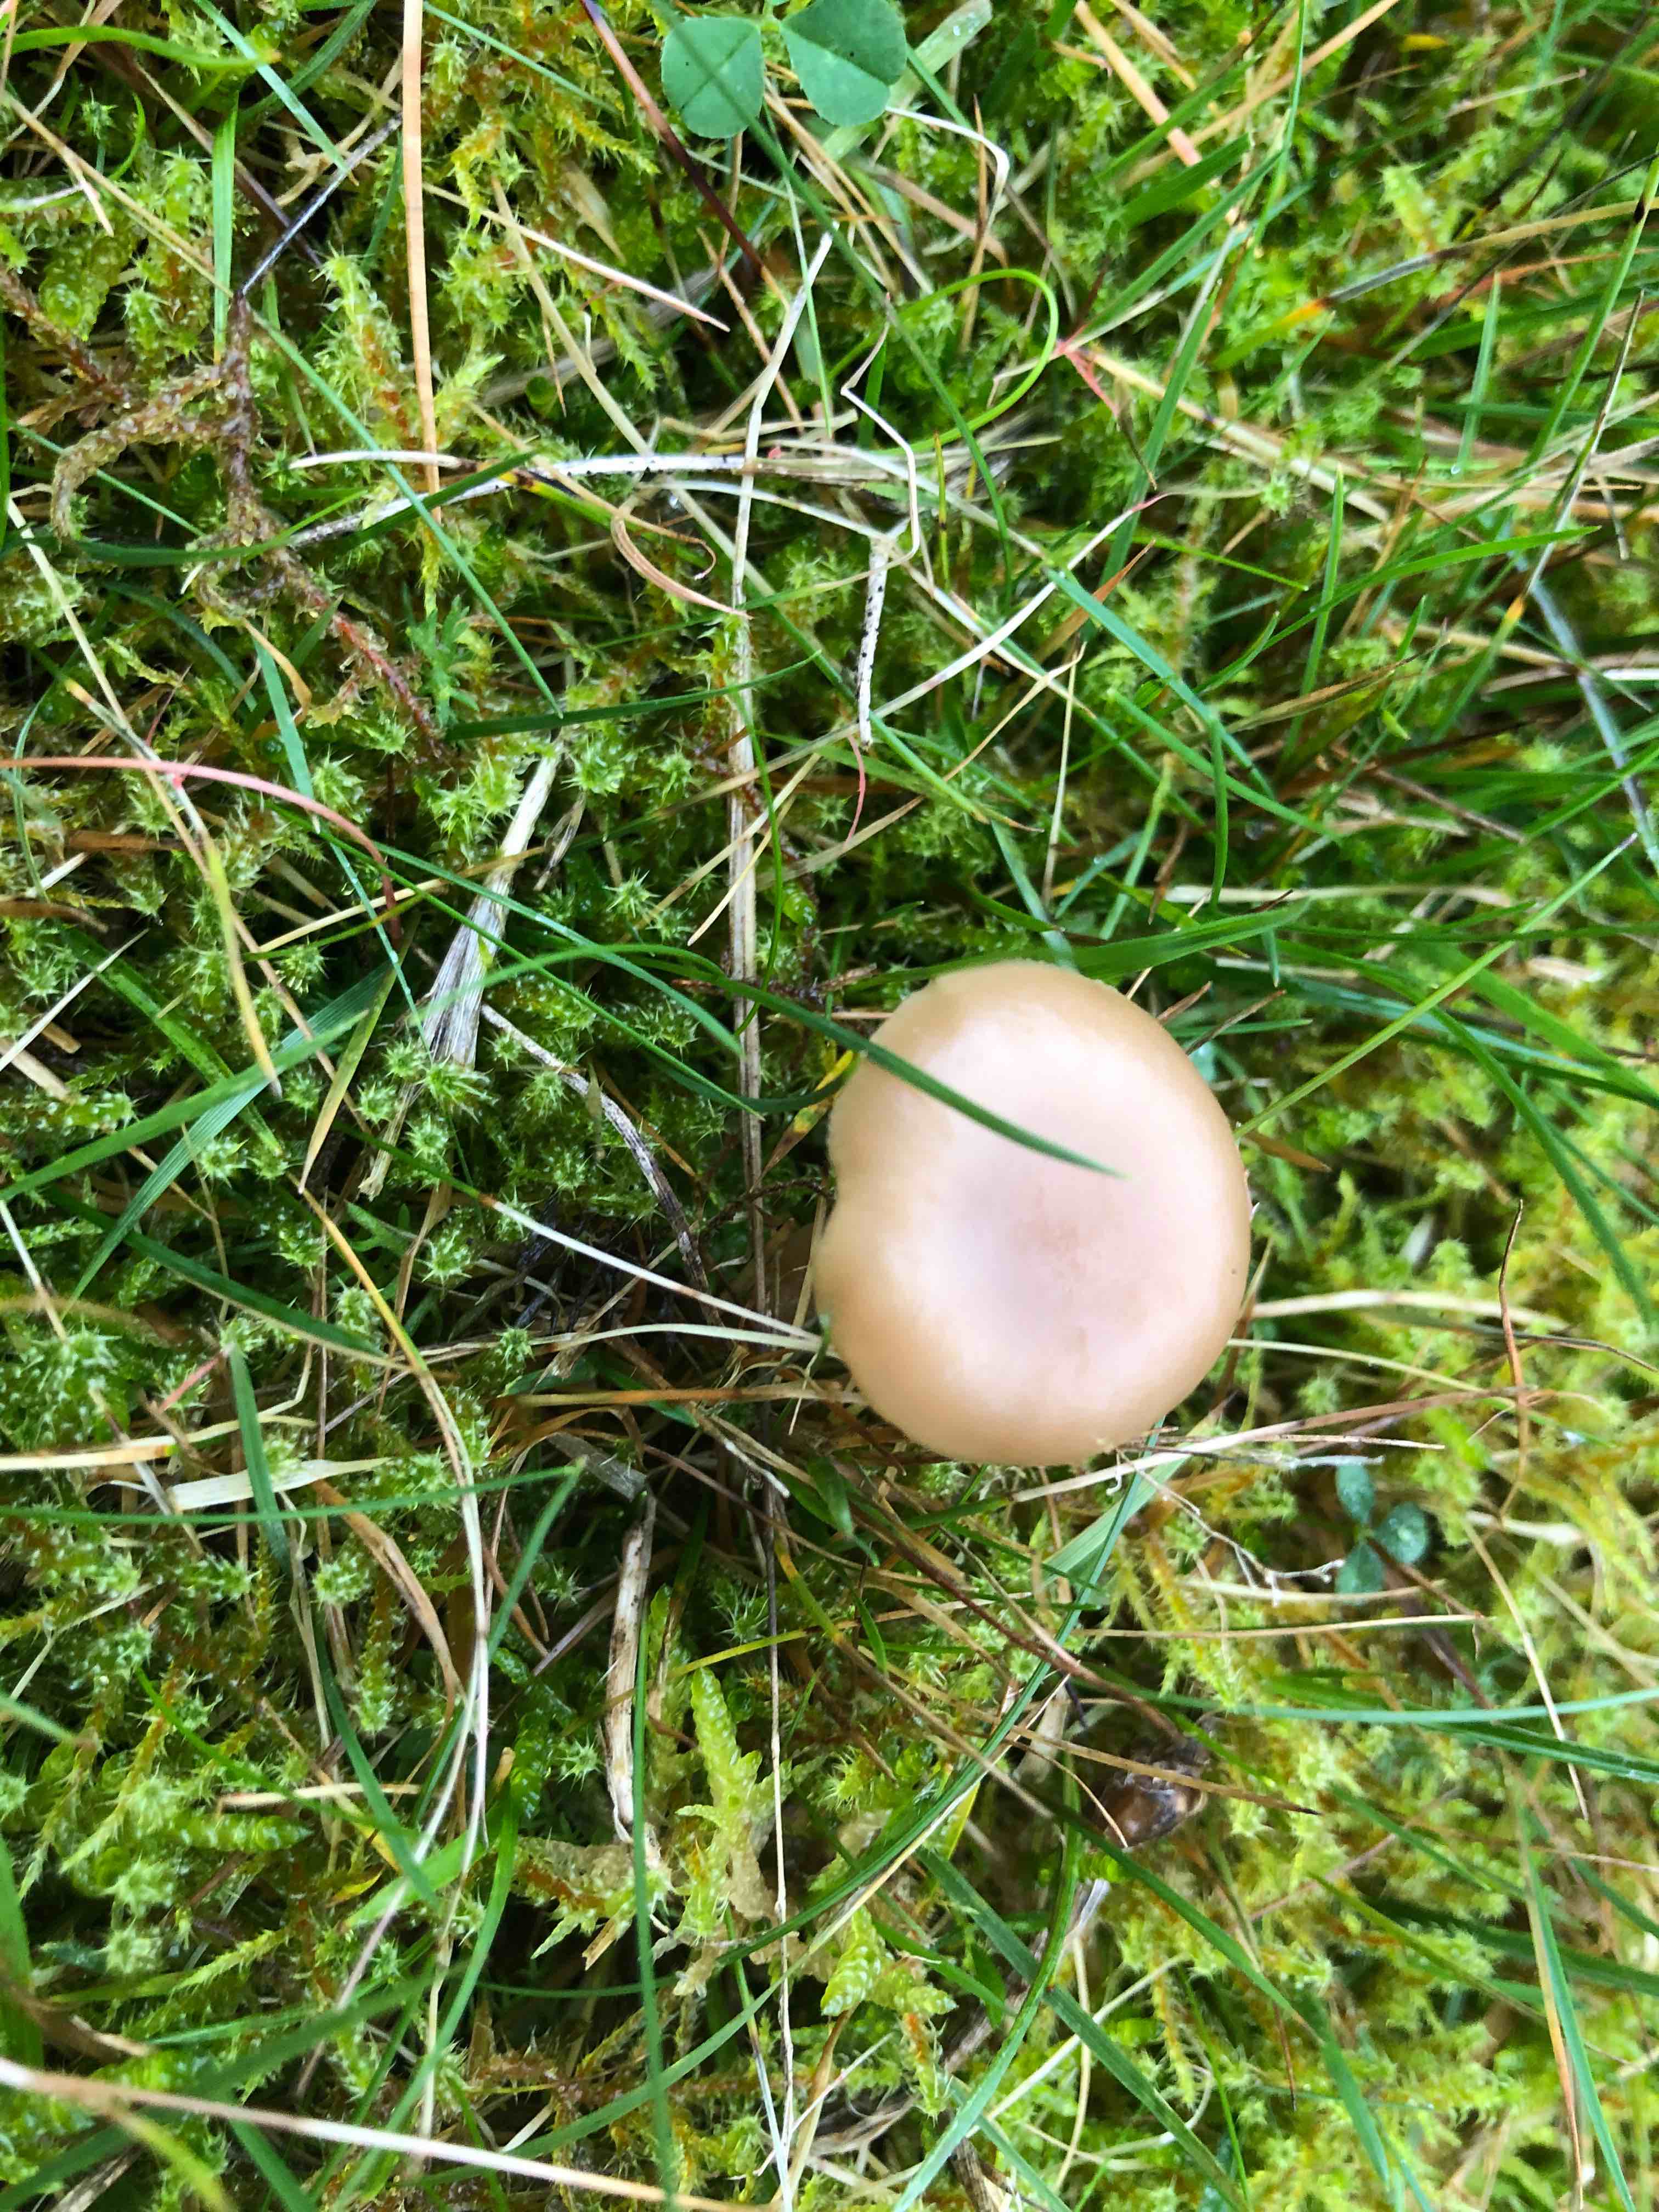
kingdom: Fungi
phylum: Basidiomycota
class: Agaricomycetes
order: Agaricales
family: Tricholomataceae
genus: Clitocybe
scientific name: Clitocybe
